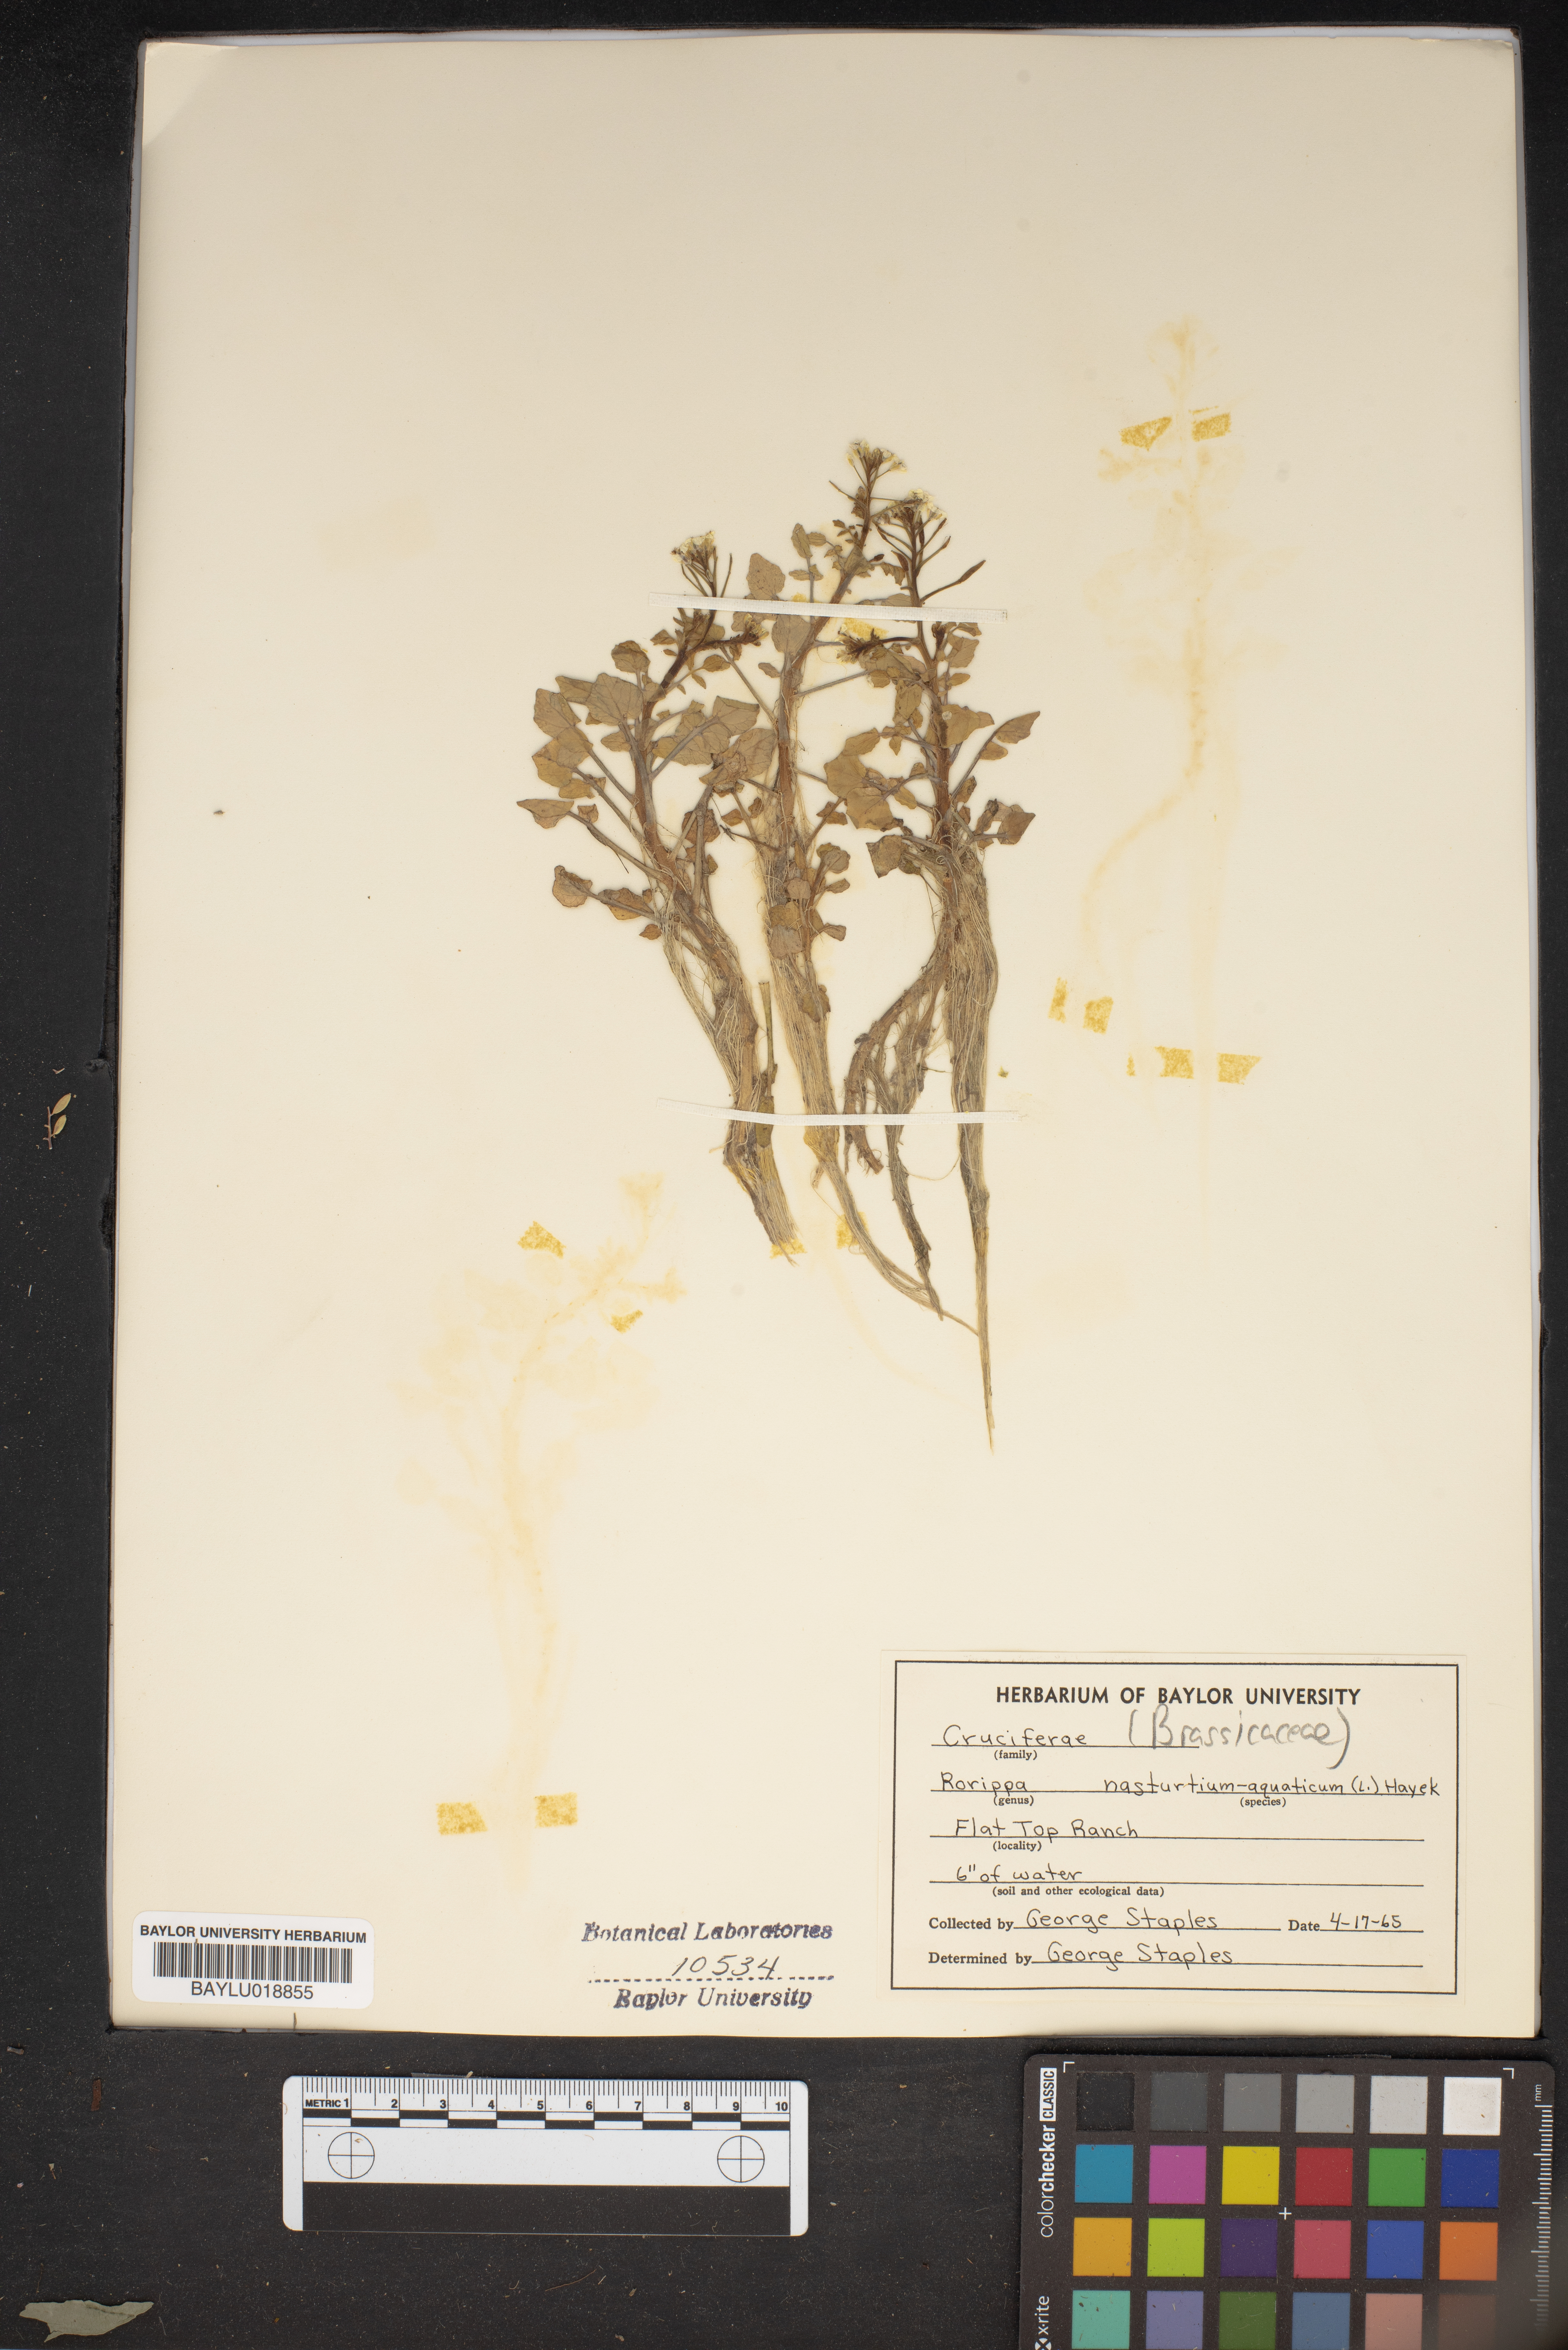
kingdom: Plantae
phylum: Tracheophyta
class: Magnoliopsida
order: Brassicales
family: Brassicaceae
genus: Nasturtium
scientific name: Nasturtium officinale
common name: Watercress
